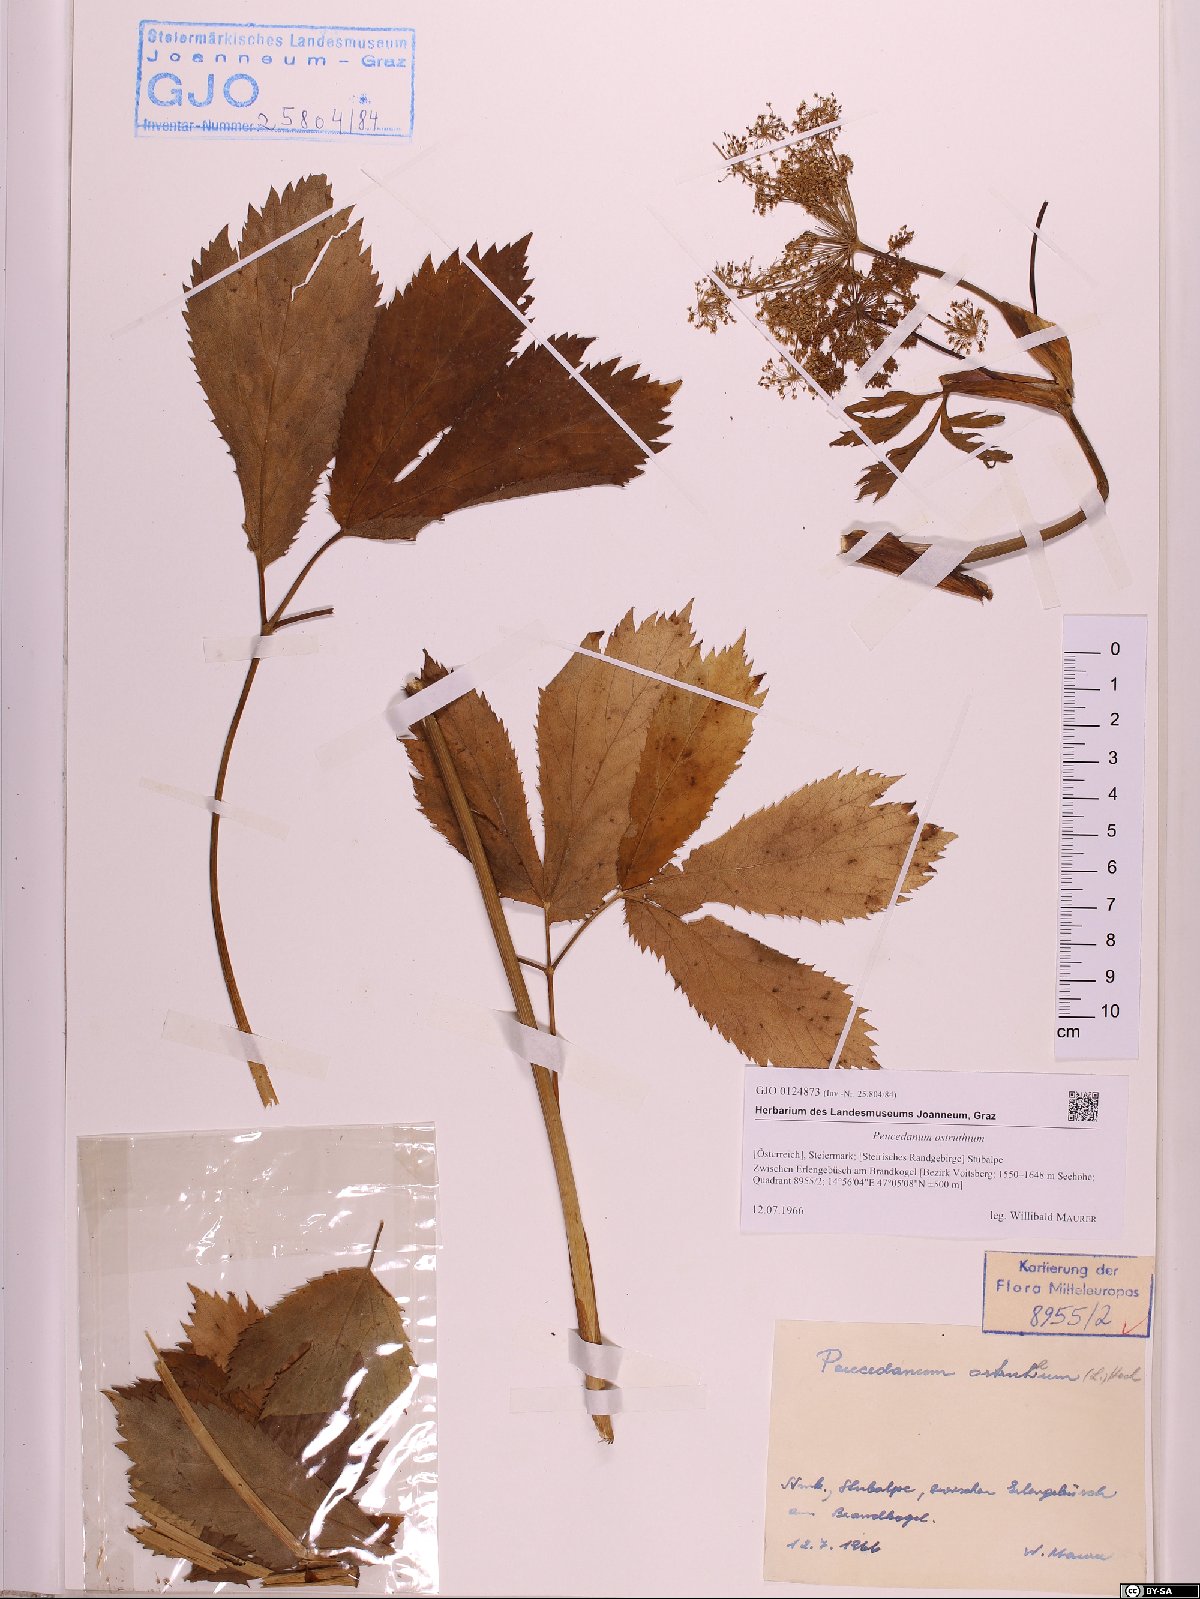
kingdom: Plantae
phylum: Tracheophyta
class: Magnoliopsida
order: Apiales
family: Apiaceae
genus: Imperatoria
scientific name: Imperatoria ostruthium
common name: Masterwort
